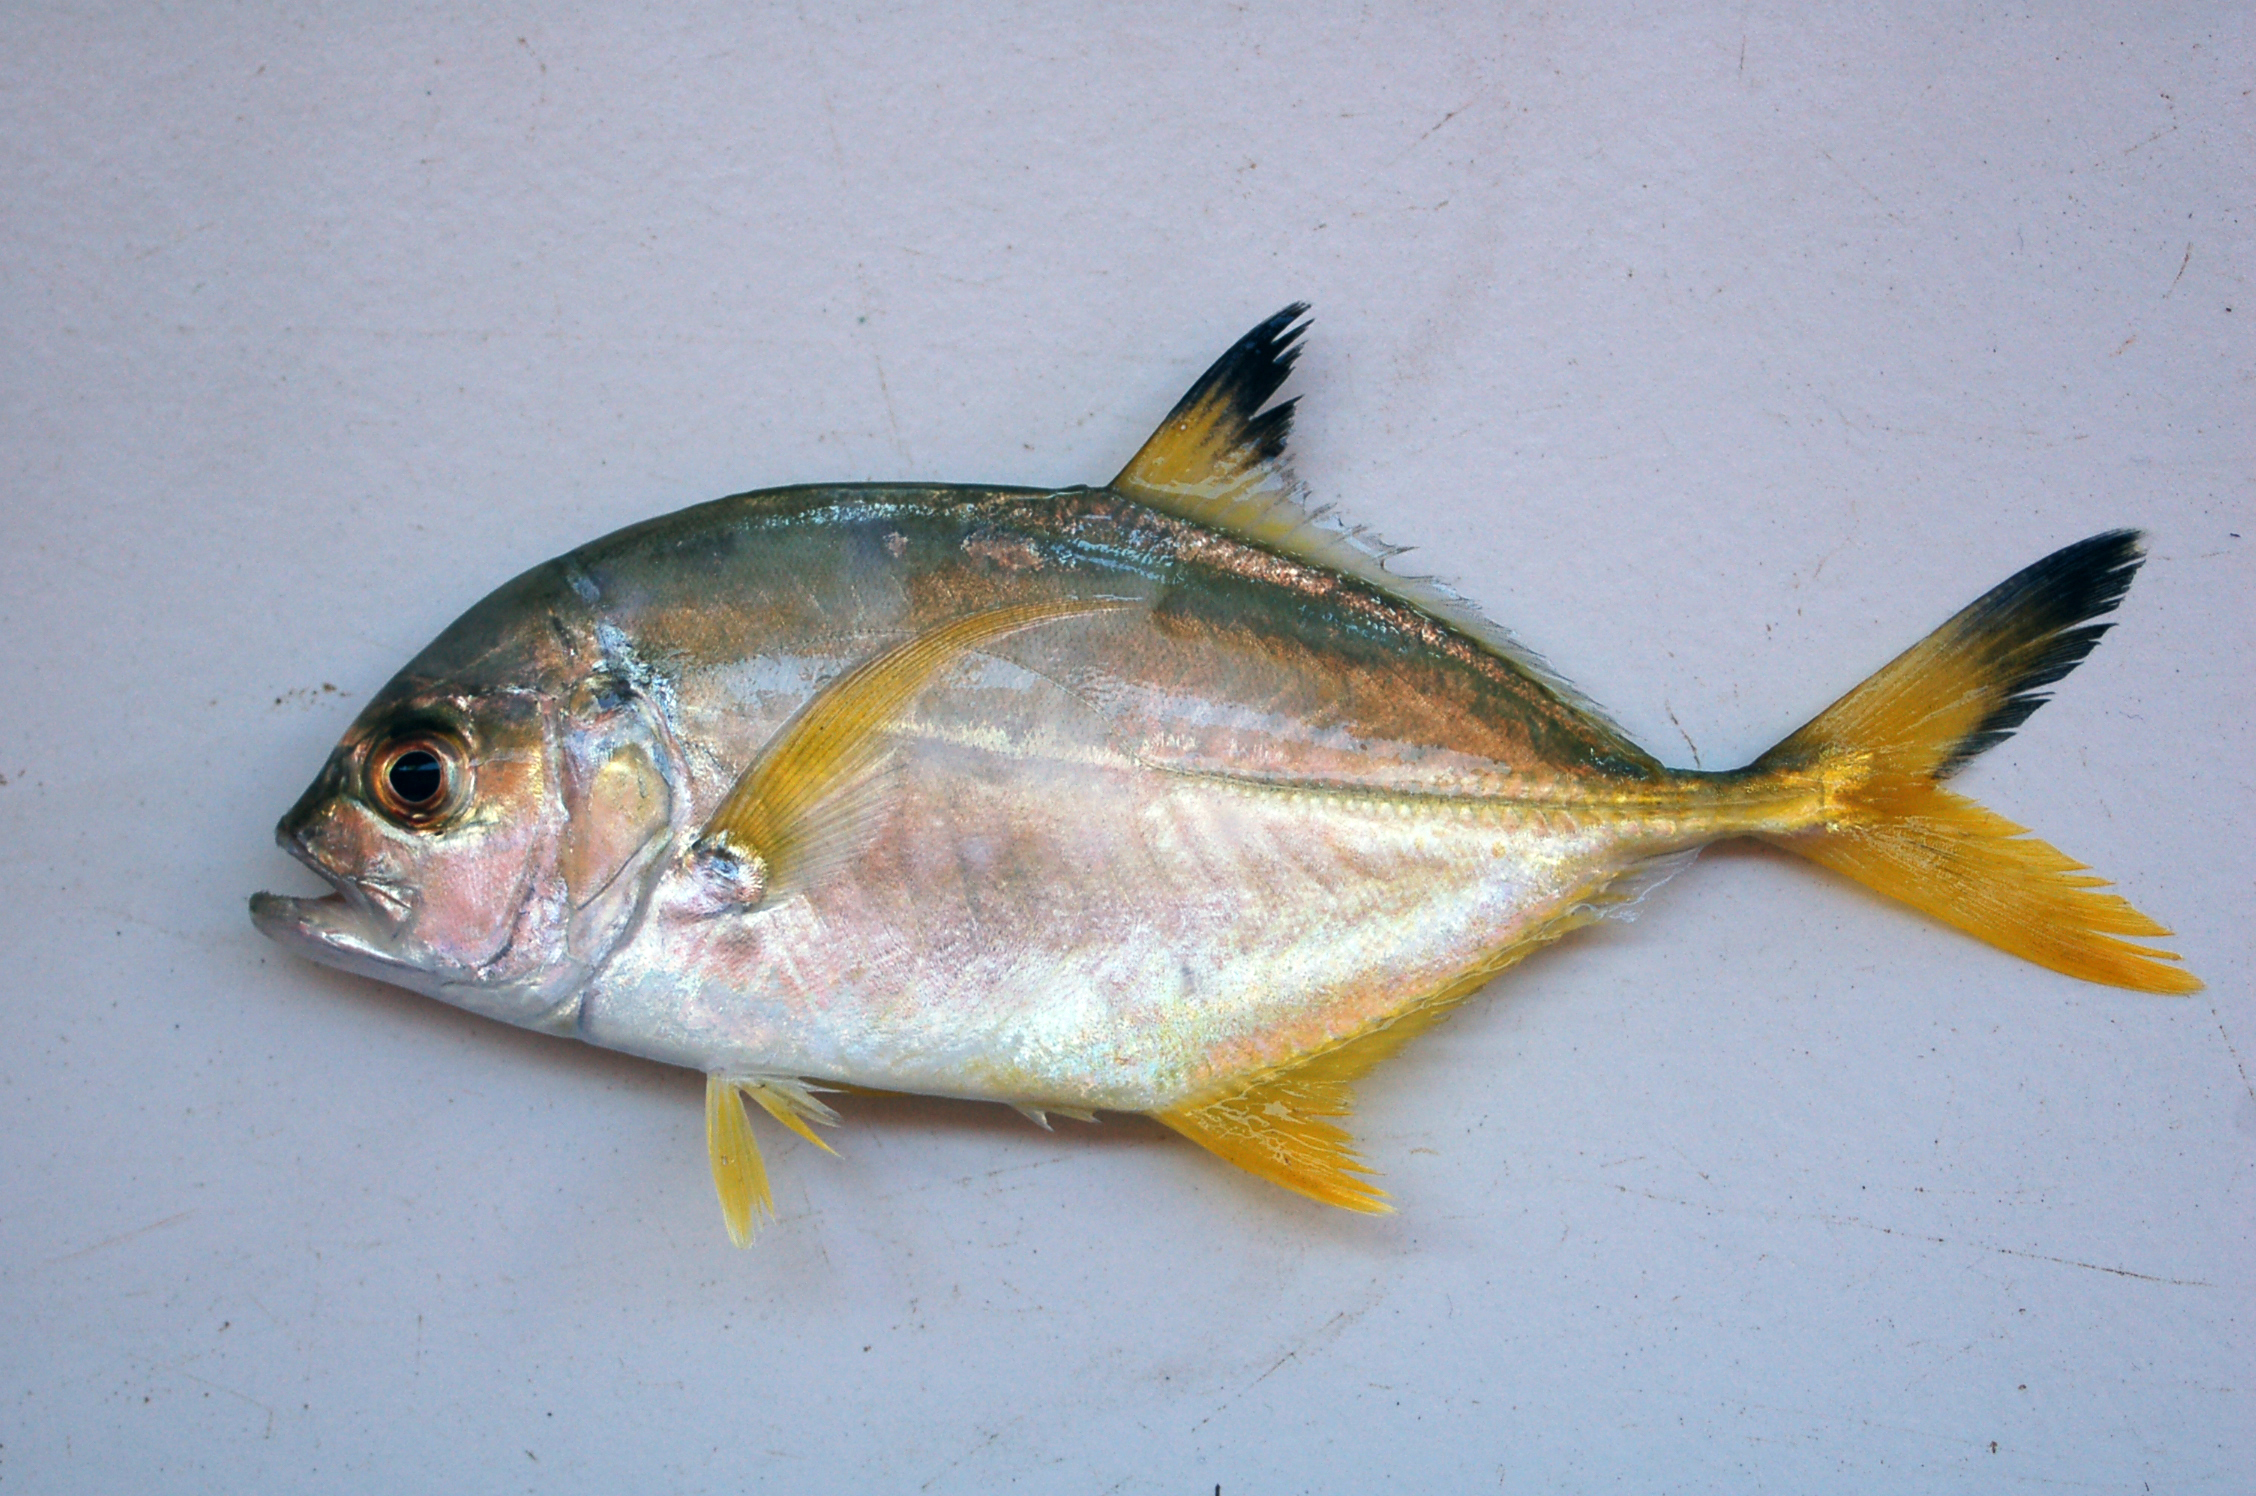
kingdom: Animalia
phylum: Chordata
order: Perciformes
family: Carangidae
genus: Caranx
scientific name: Caranx heberi
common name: Blacktip trevally
